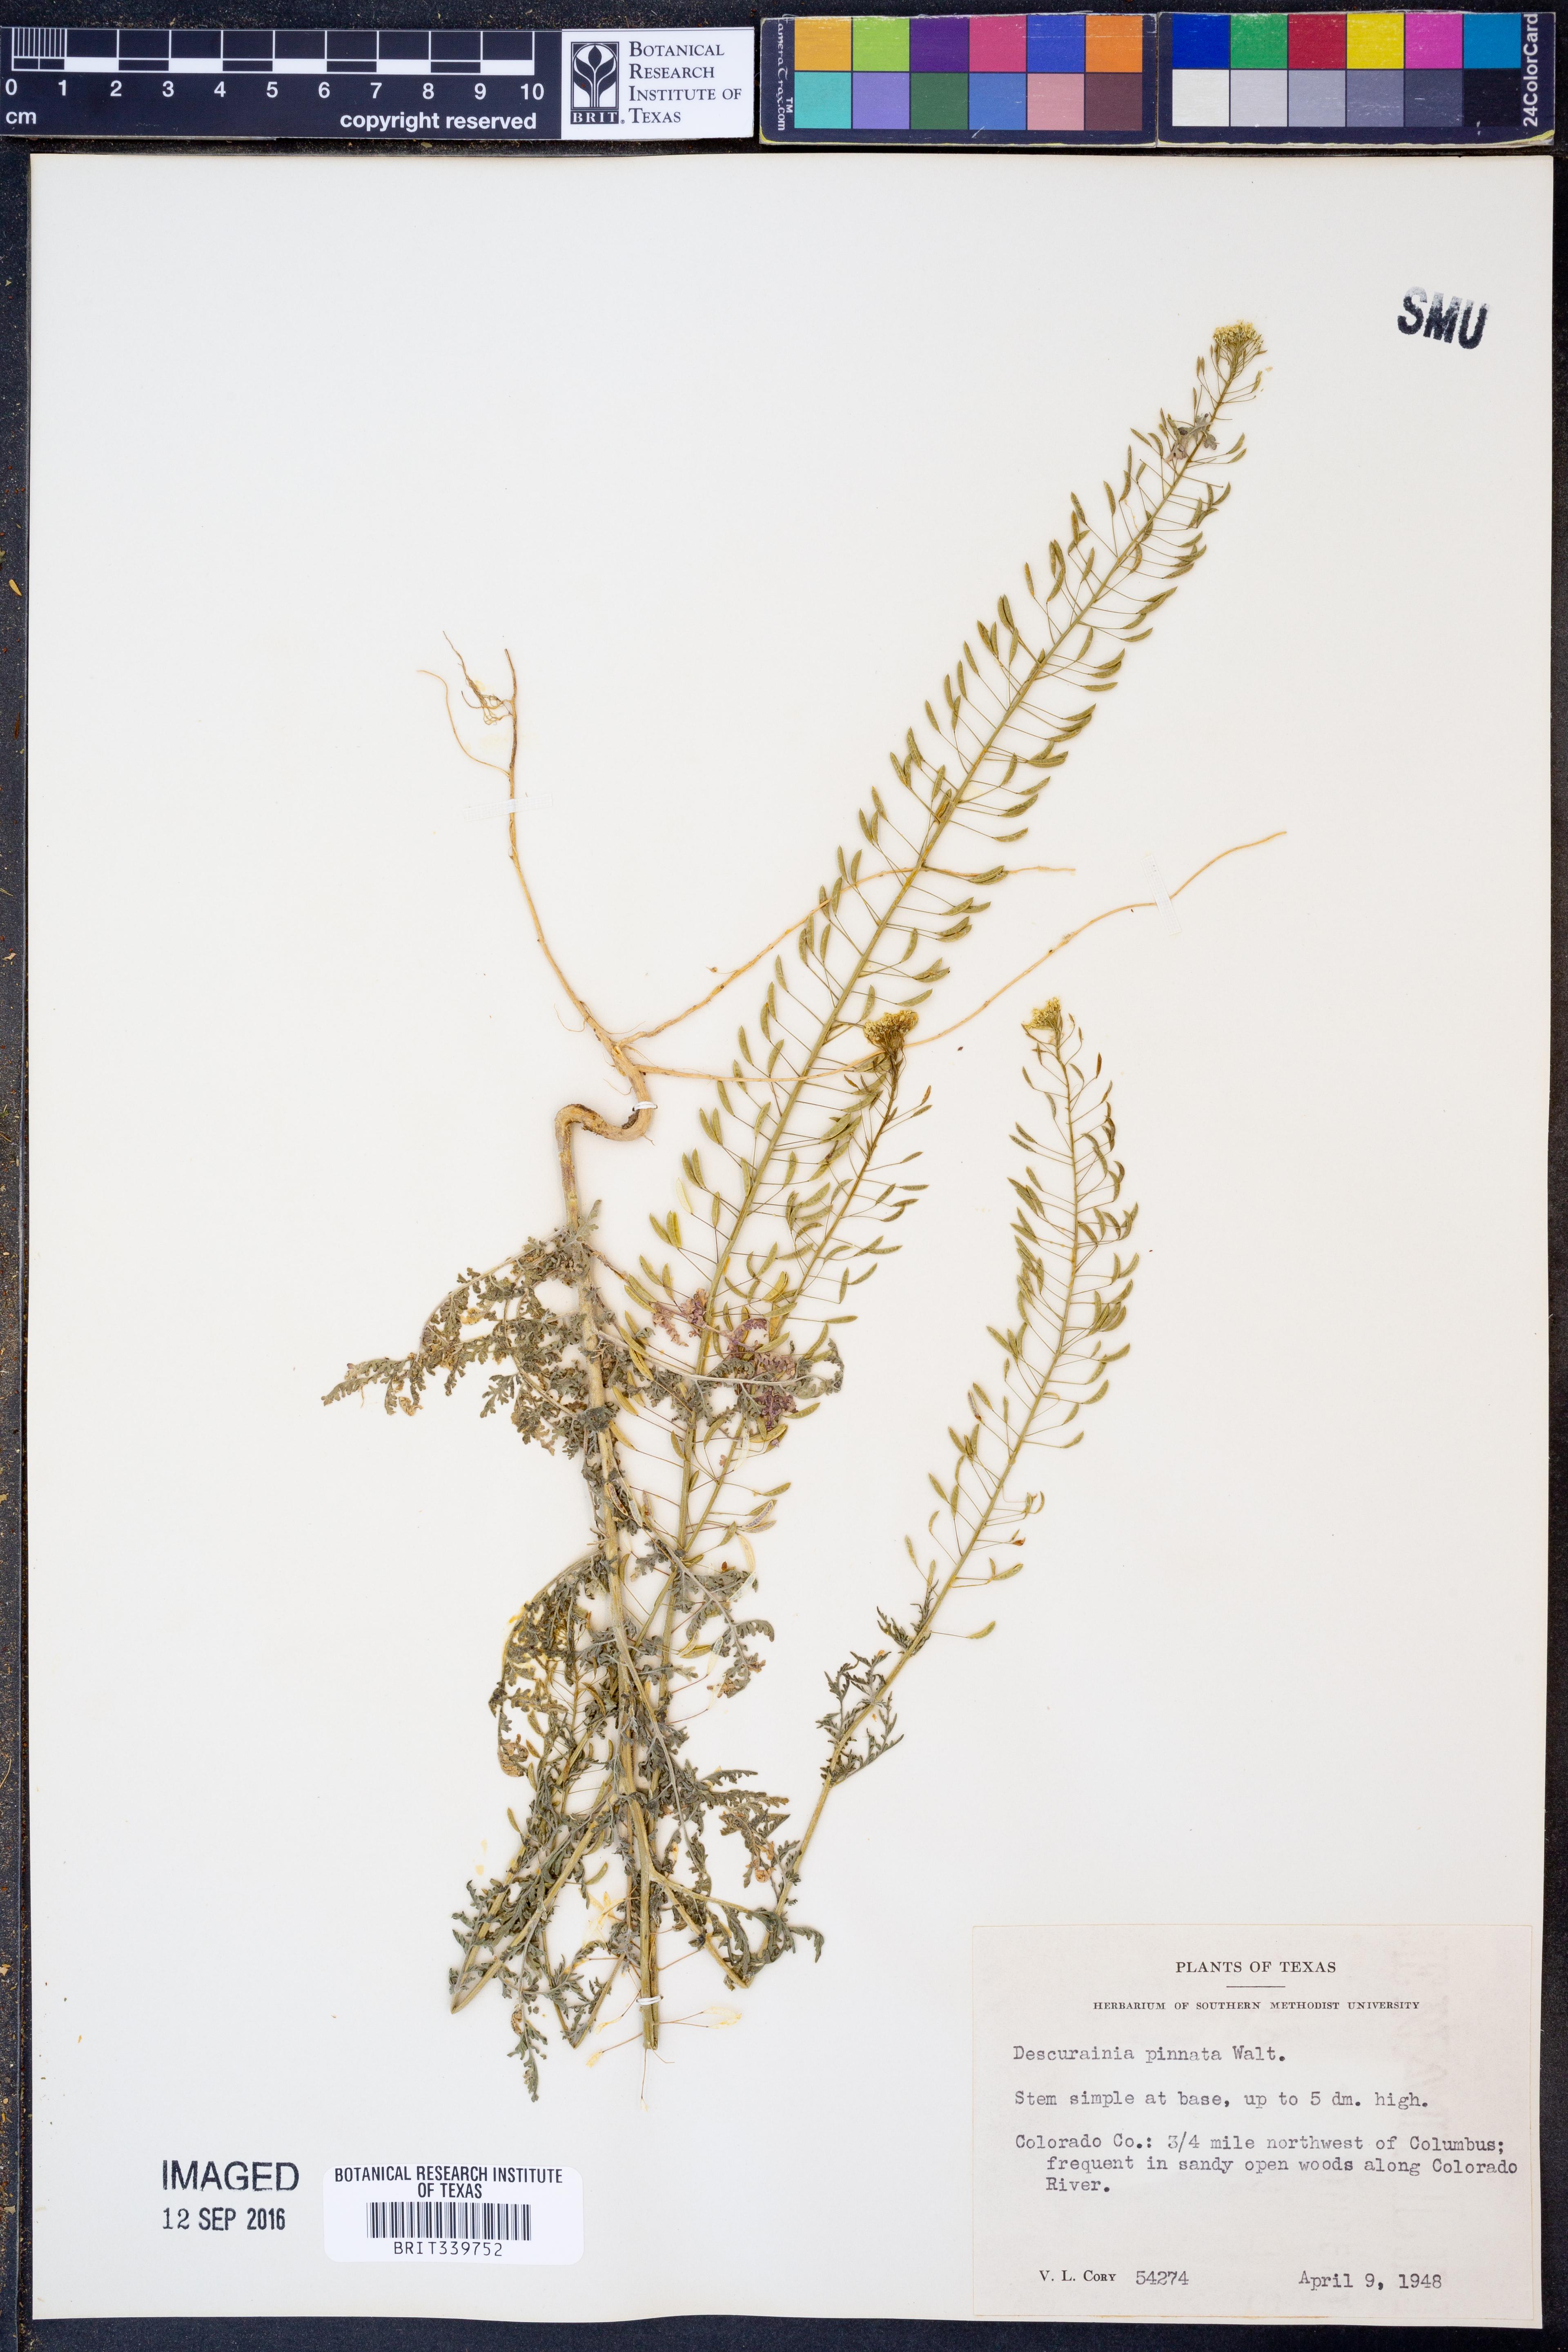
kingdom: Plantae
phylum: Tracheophyta
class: Magnoliopsida
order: Brassicales
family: Brassicaceae
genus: Descurainia
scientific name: Descurainia pinnata
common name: Western tansy mustard
